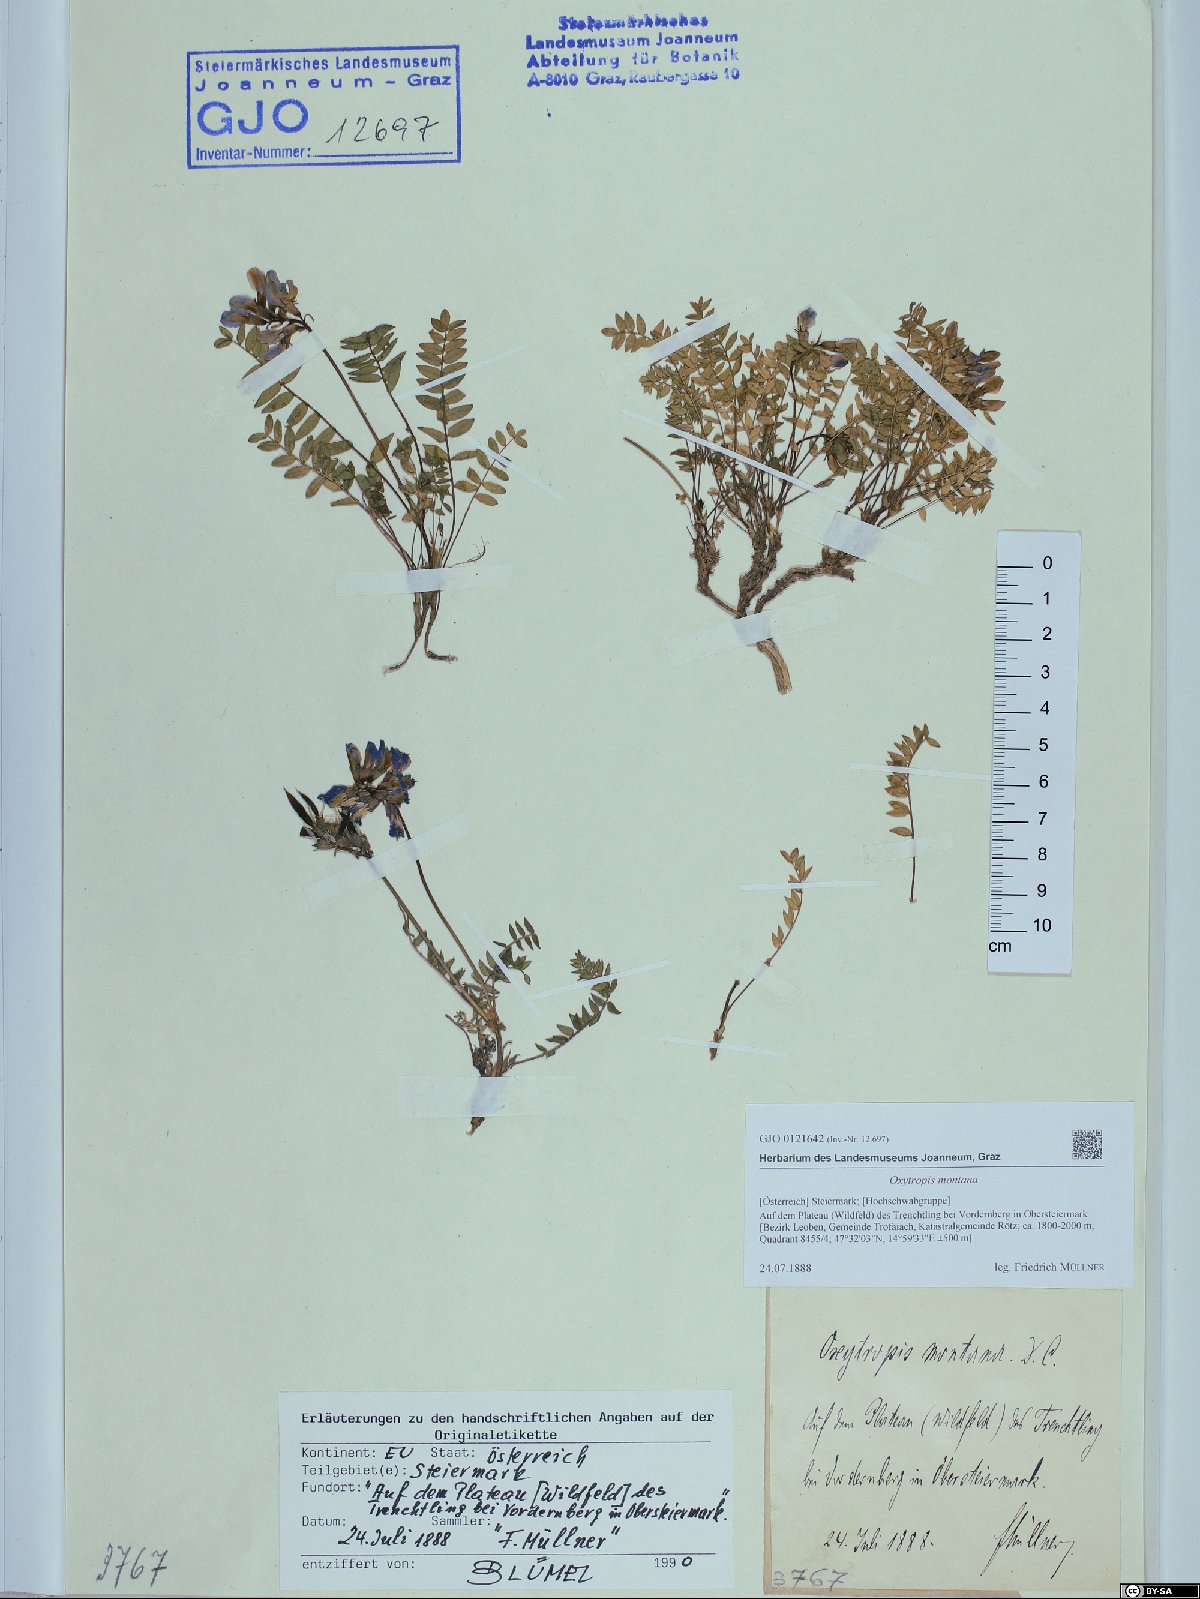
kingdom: Plantae
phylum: Tracheophyta
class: Magnoliopsida
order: Fabales
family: Fabaceae
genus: Oxytropis
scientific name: Oxytropis montana
